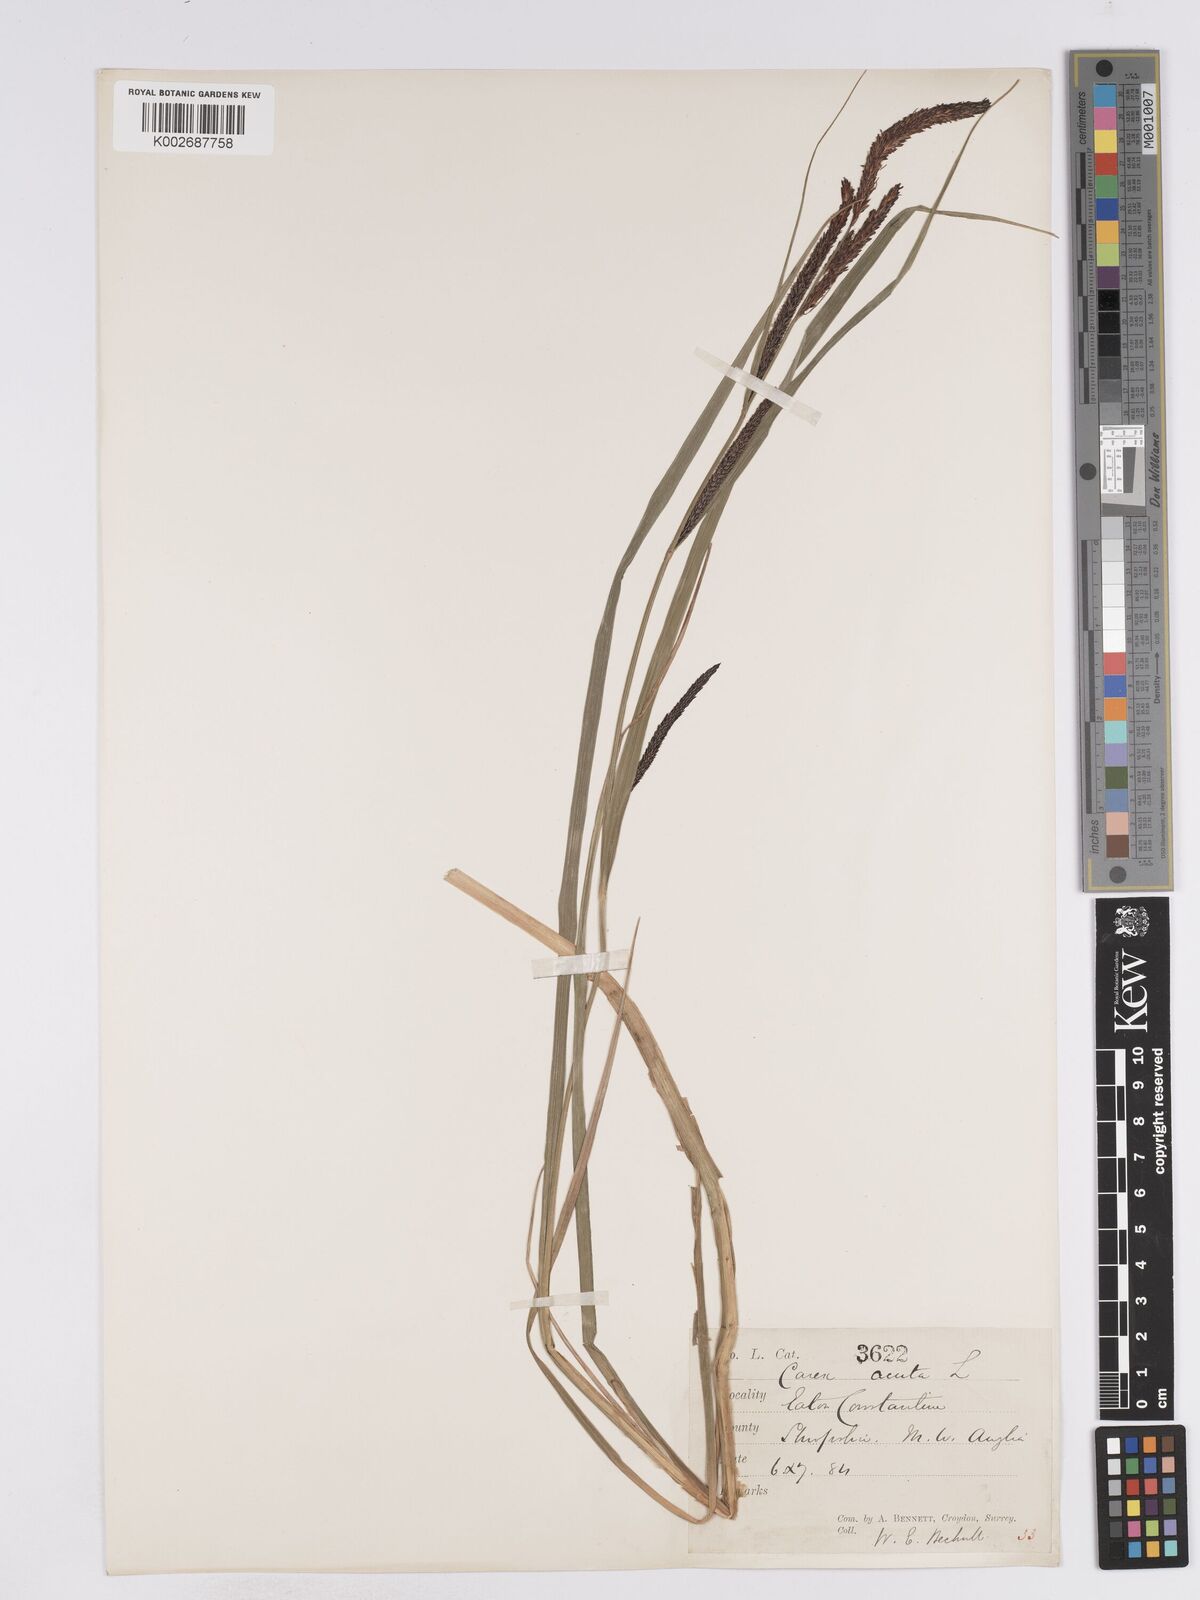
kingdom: Plantae
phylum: Tracheophyta
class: Liliopsida
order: Poales
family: Cyperaceae
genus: Carex
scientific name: Carex acuta
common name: Slender tufted-sedge
